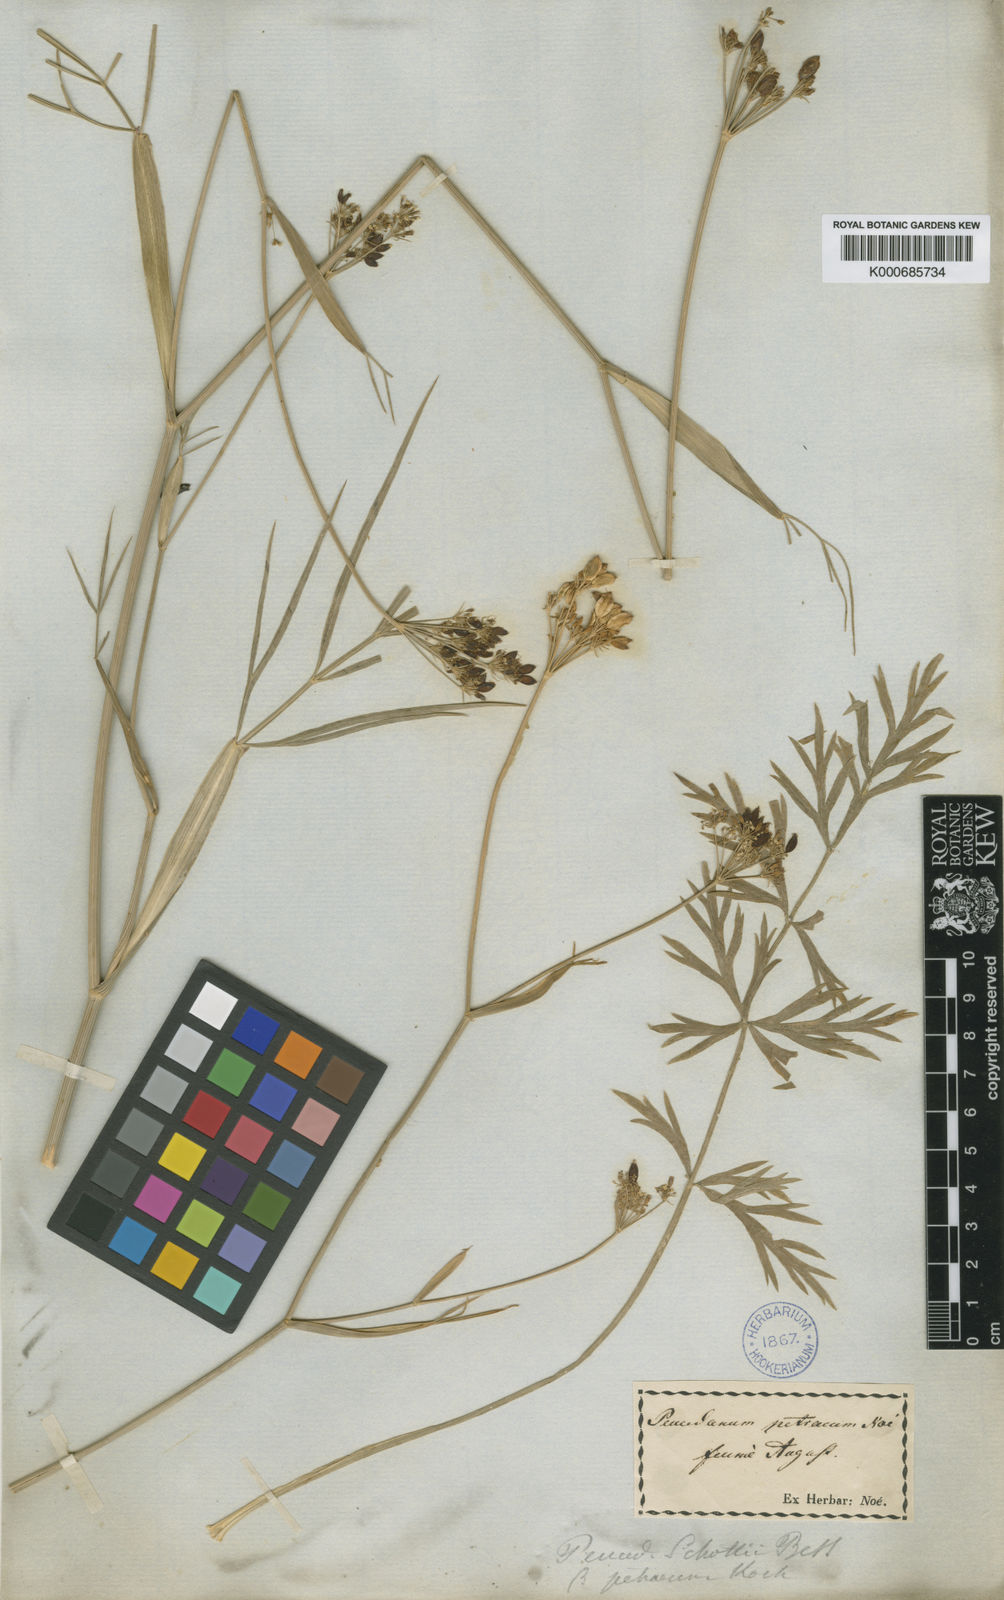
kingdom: Plantae
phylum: Tracheophyta
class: Magnoliopsida
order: Apiales
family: Apiaceae
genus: Dichoropetalum
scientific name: Dichoropetalum schottii
